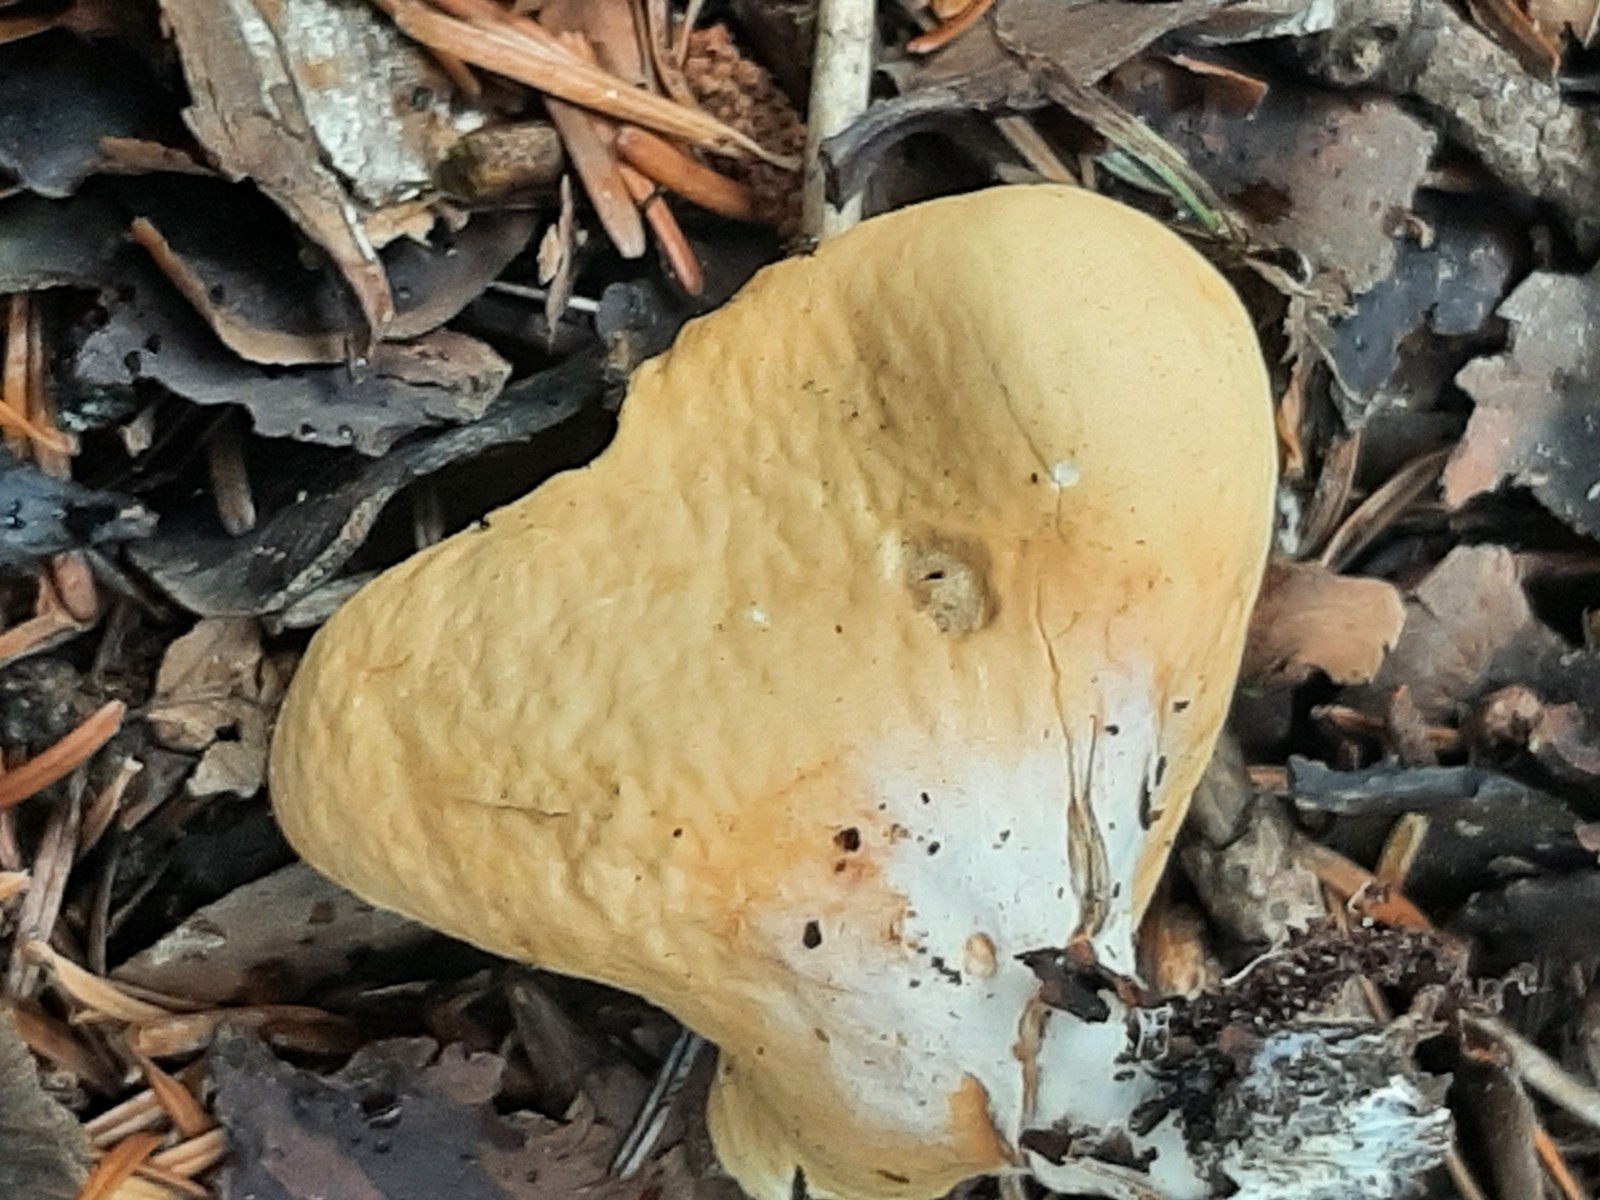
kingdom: Fungi
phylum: Ascomycota
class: Pezizomycetes
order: Pezizales
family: Otideaceae
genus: Otidea
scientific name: Otidea onotica
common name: æsel-ørebæger
